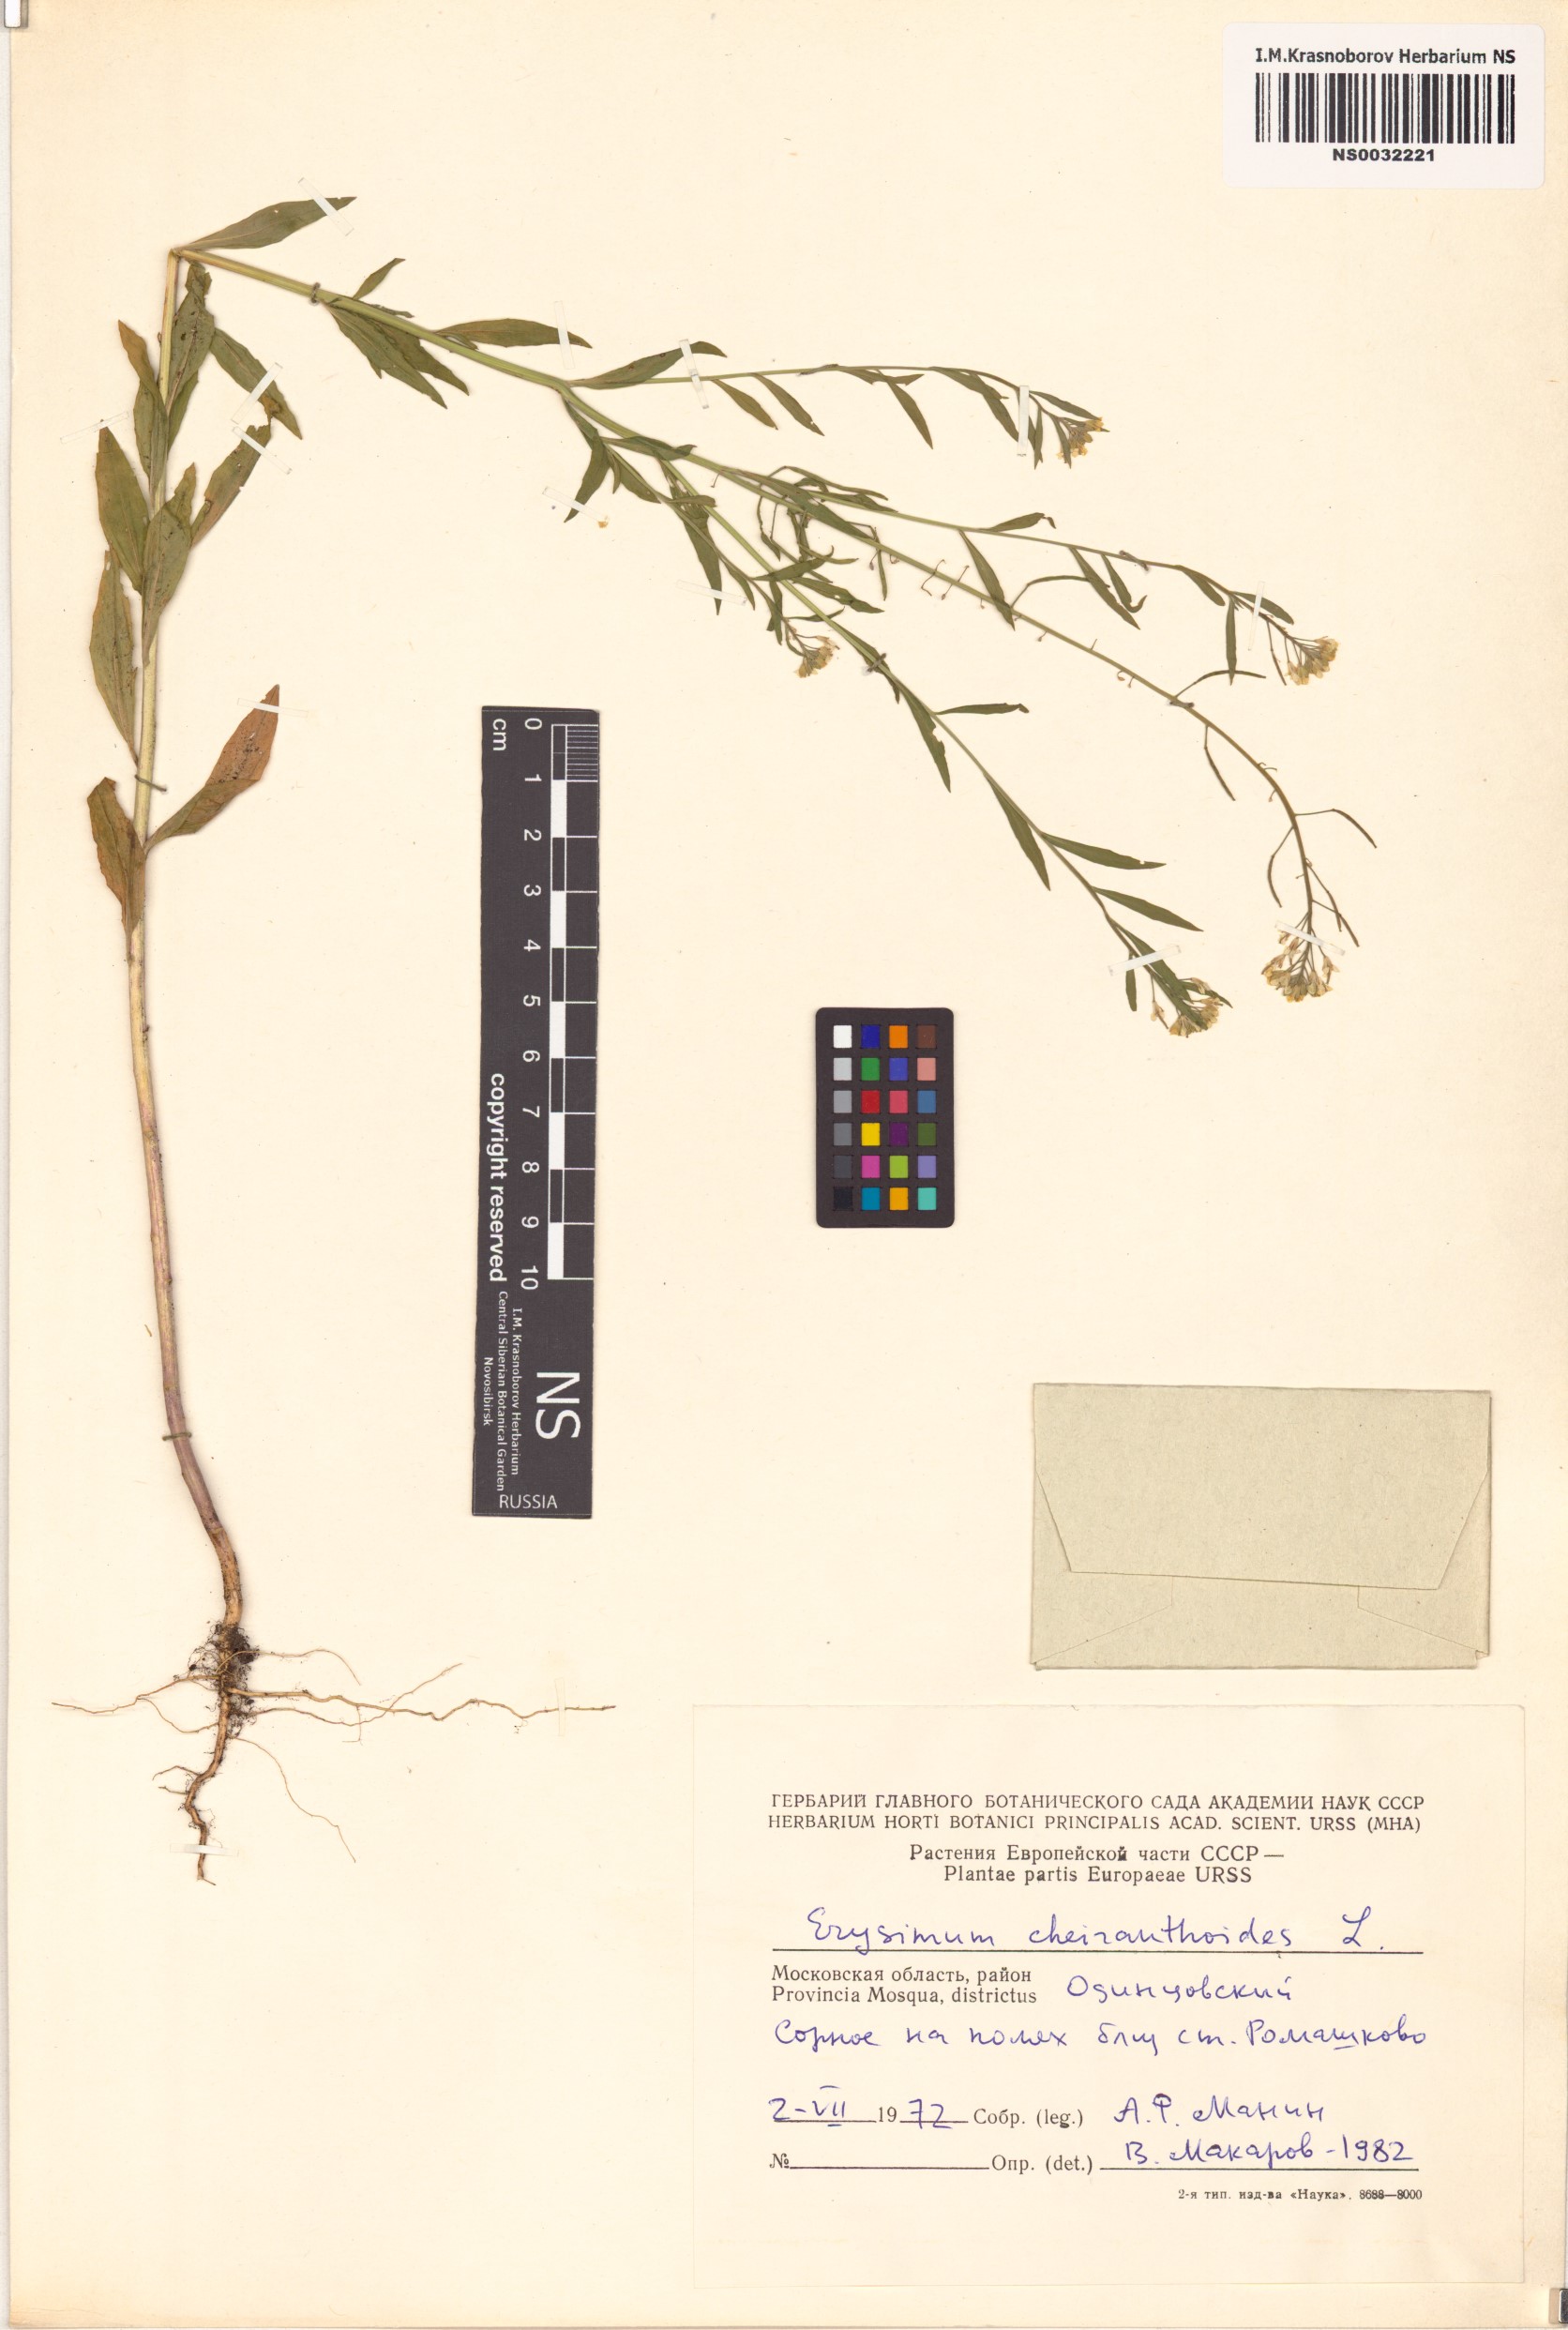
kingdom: Plantae
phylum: Tracheophyta
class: Magnoliopsida
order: Brassicales
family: Brassicaceae
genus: Erysimum
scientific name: Erysimum cheiranthoides
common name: Treacle mustard
